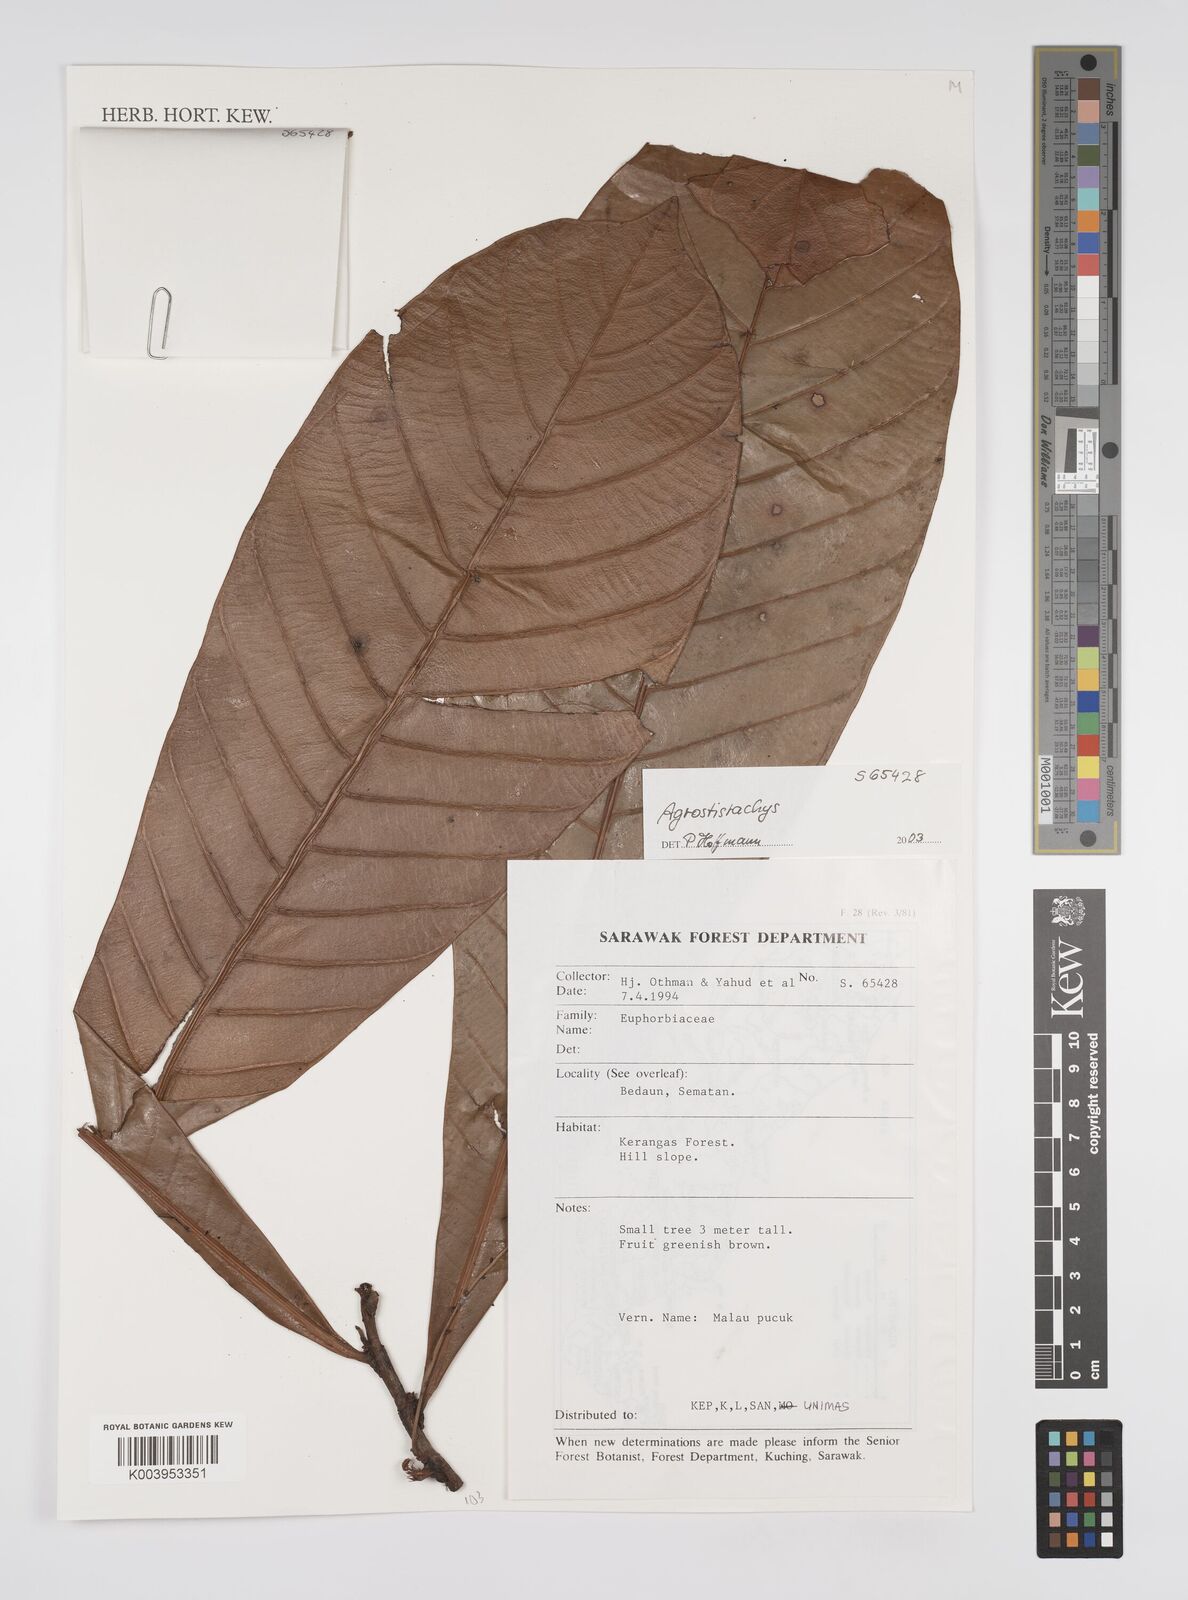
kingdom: Plantae
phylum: Tracheophyta
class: Magnoliopsida
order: Malpighiales
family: Euphorbiaceae
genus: Agrostistachys
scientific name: Agrostistachys
